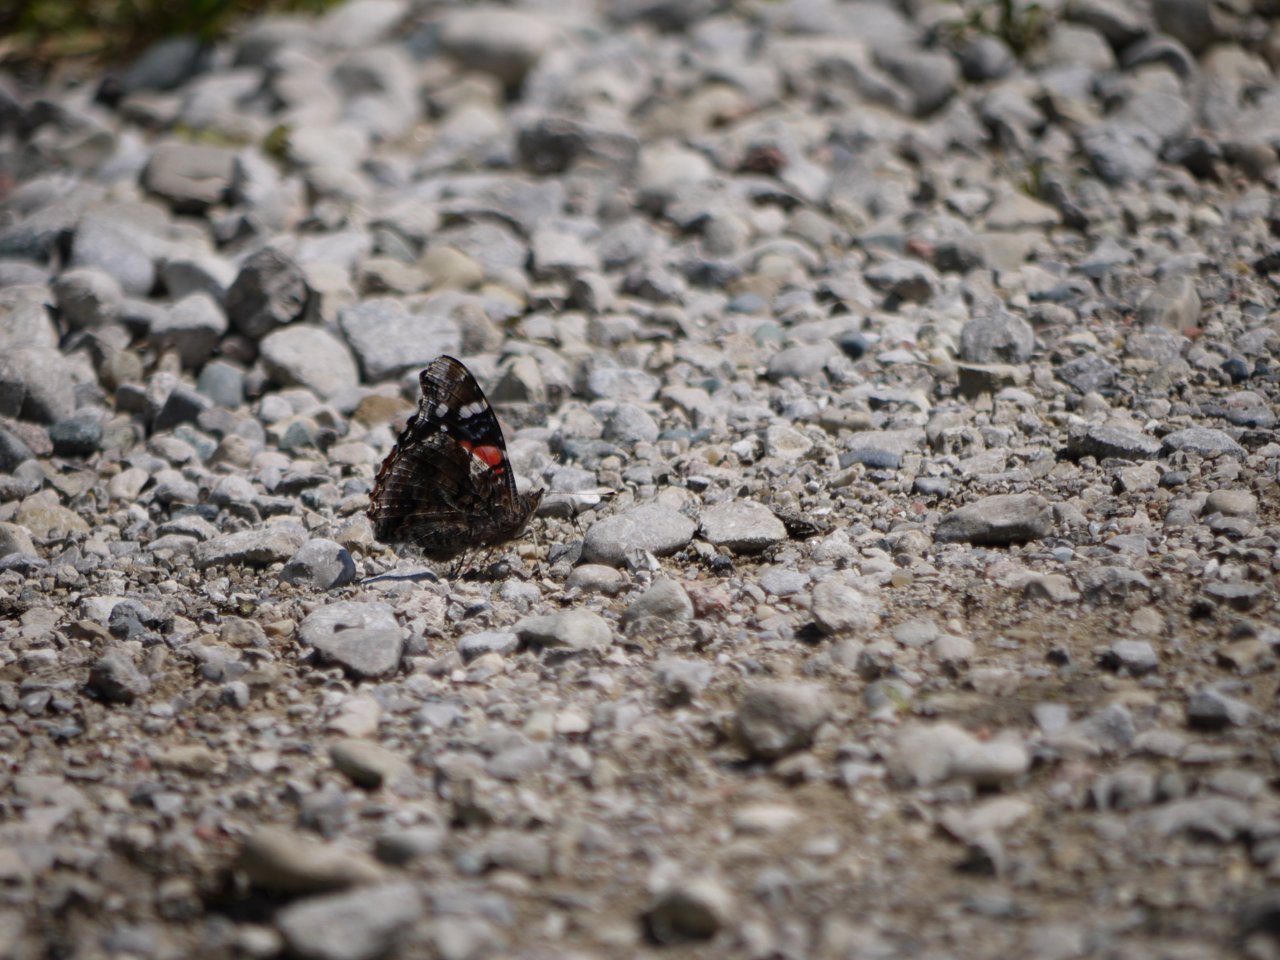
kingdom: Animalia
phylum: Arthropoda
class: Insecta
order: Lepidoptera
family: Nymphalidae
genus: Vanessa
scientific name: Vanessa atalanta
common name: Red Admiral
